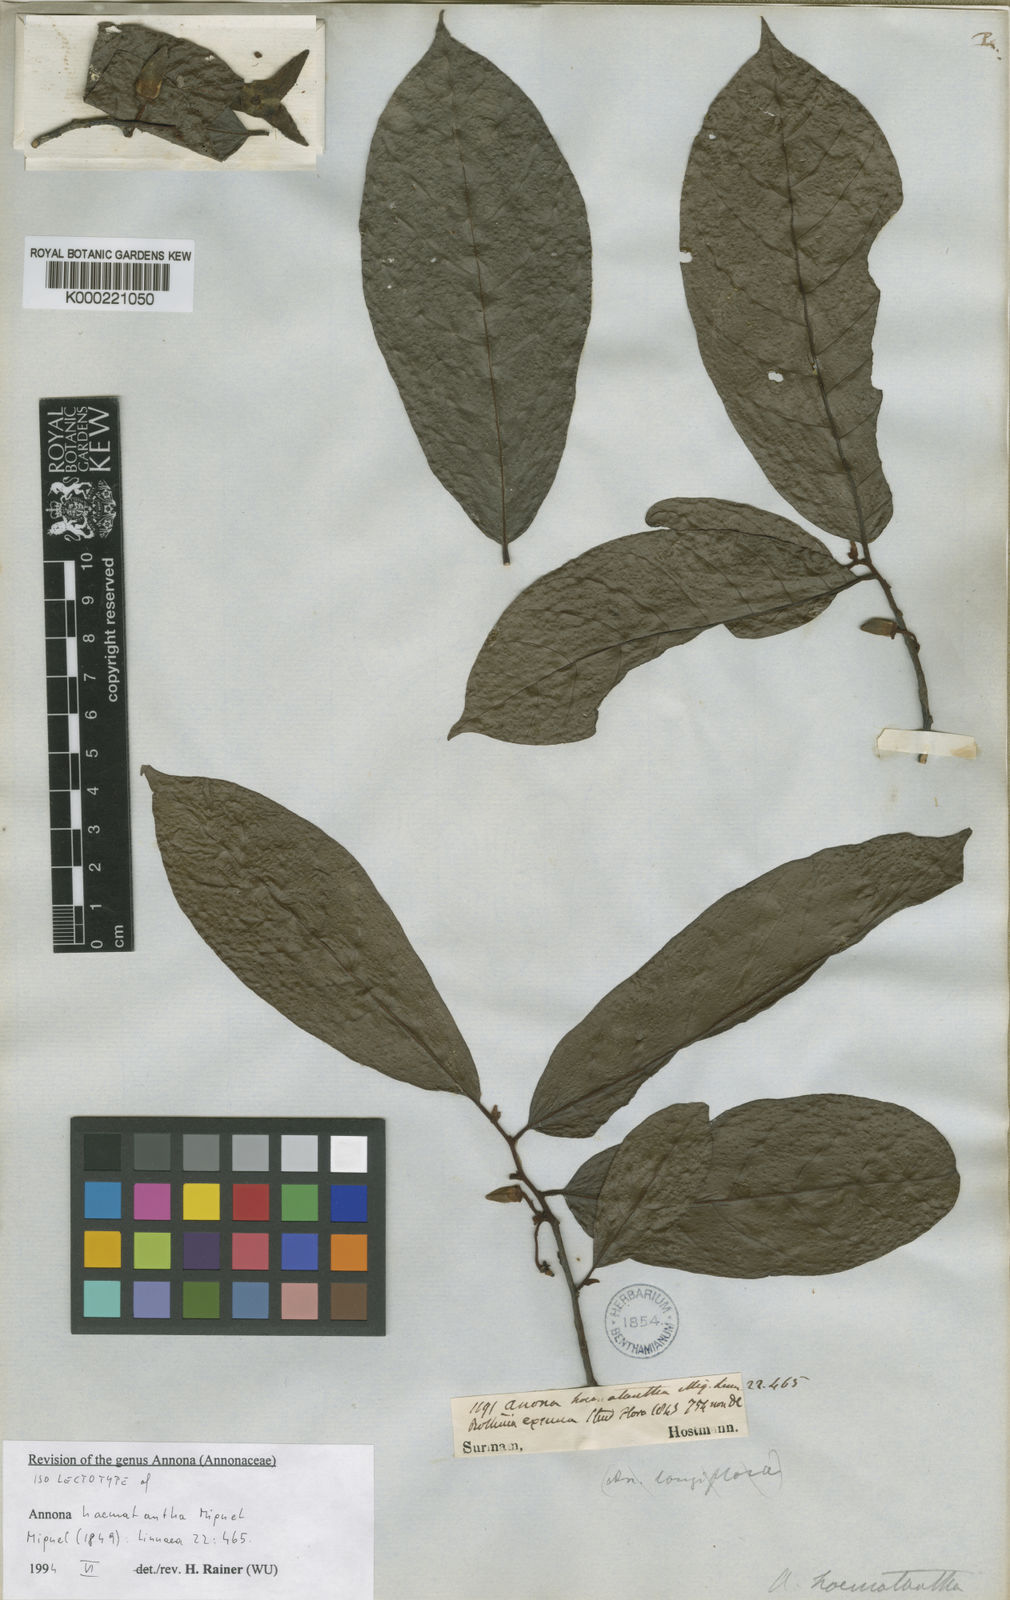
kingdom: Plantae
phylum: Tracheophyta
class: Magnoliopsida
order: Magnoliales
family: Annonaceae
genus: Annona
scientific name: Annona haematantha
